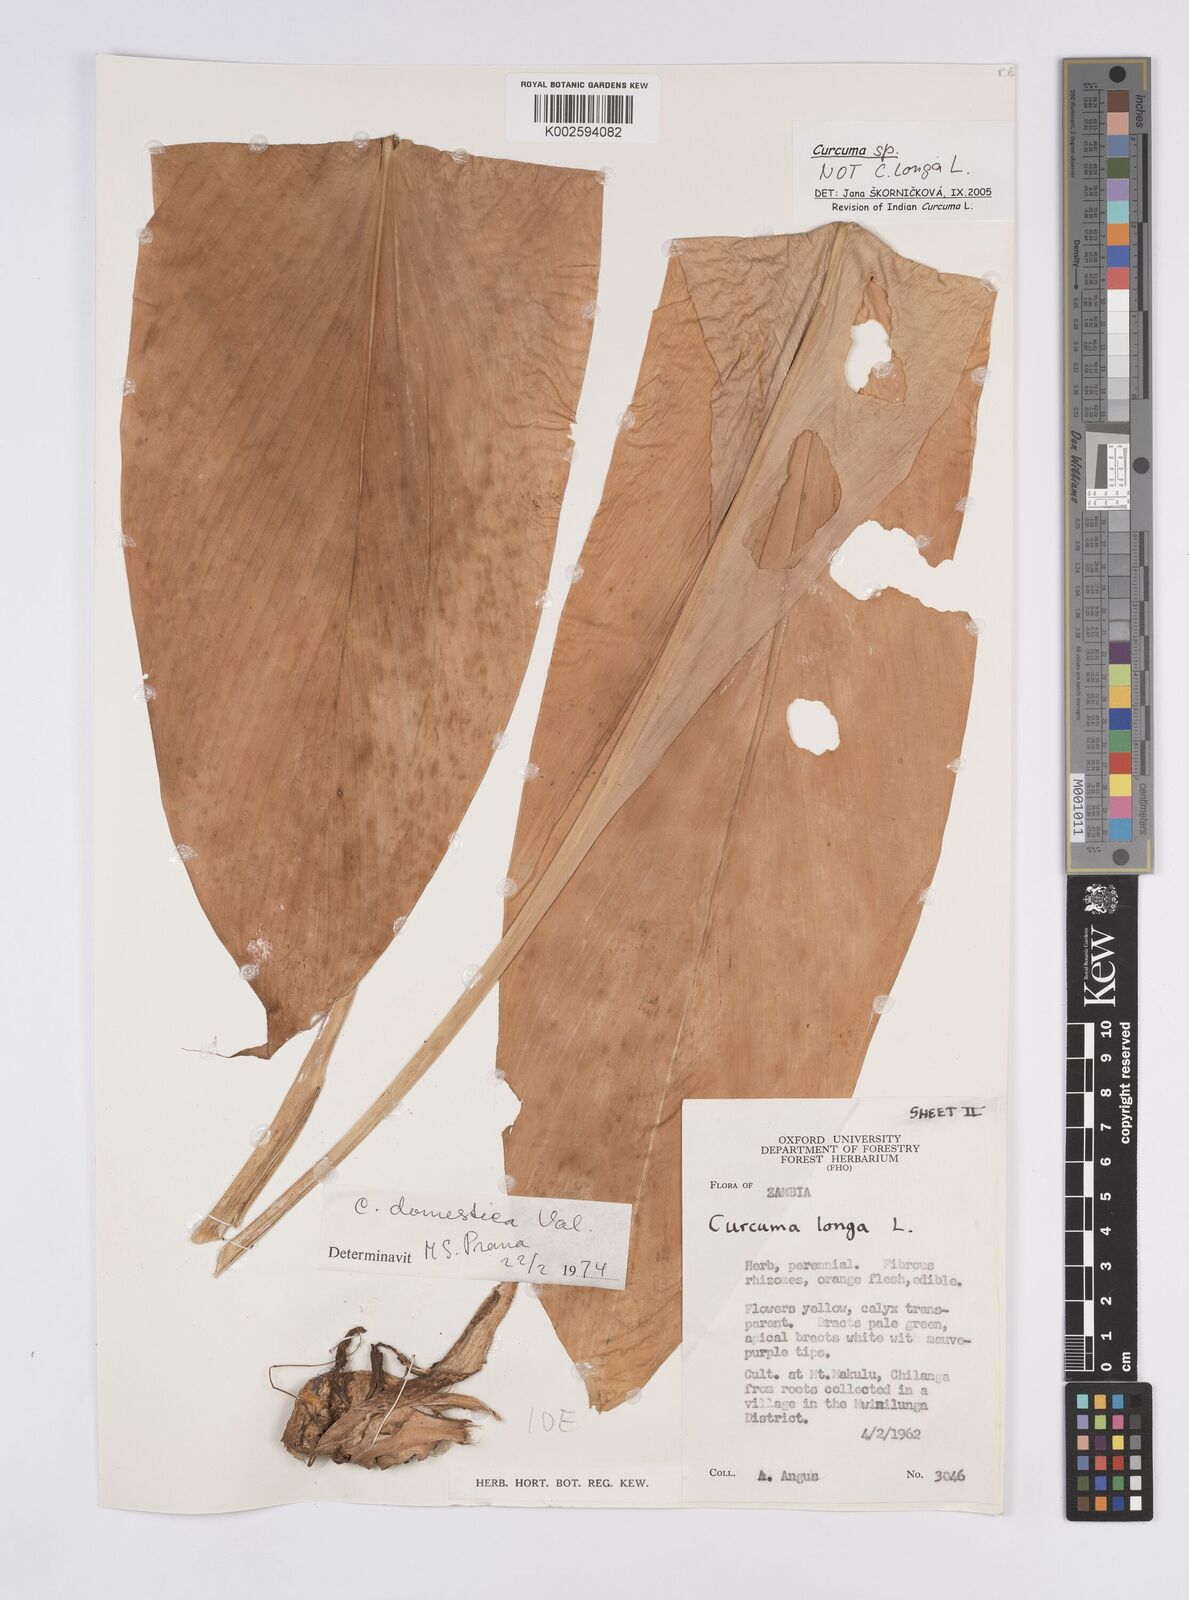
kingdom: Plantae
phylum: Tracheophyta
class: Liliopsida
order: Zingiberales
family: Zingiberaceae
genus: Curcuma
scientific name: Curcuma longa
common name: Turmeric
